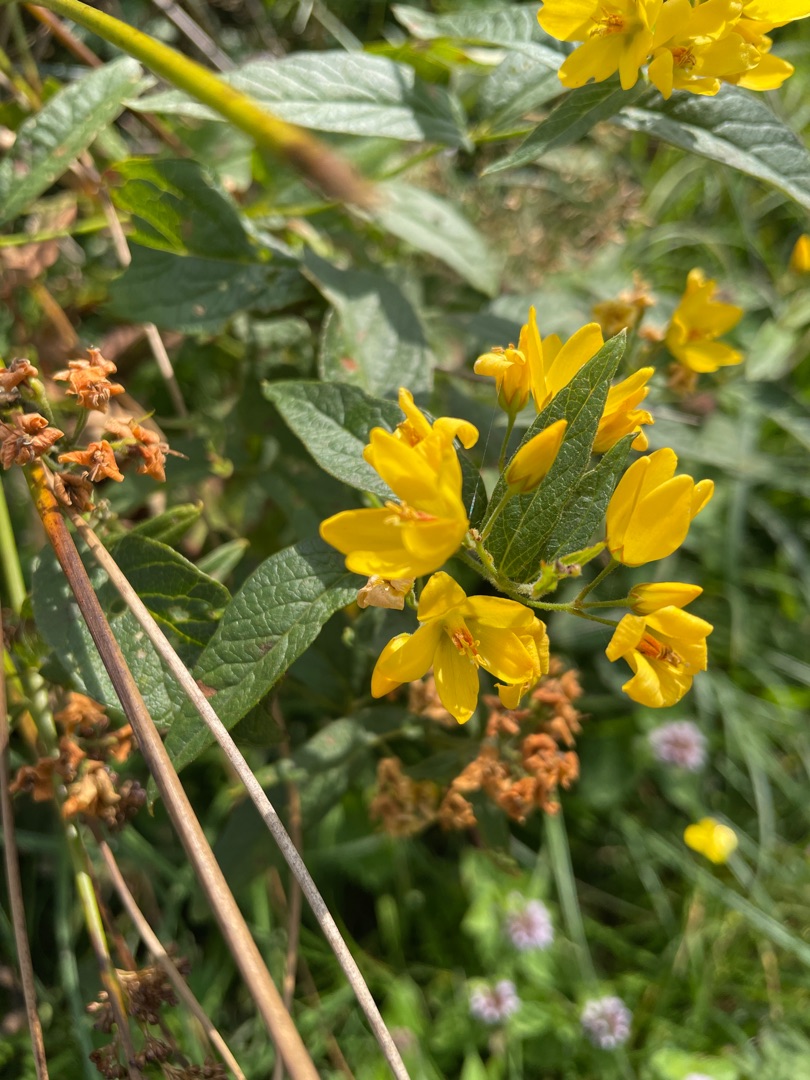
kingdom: Plantae
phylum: Tracheophyta
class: Magnoliopsida
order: Ericales
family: Primulaceae
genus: Lysimachia
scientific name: Lysimachia vulgaris
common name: Almindelig fredløs
